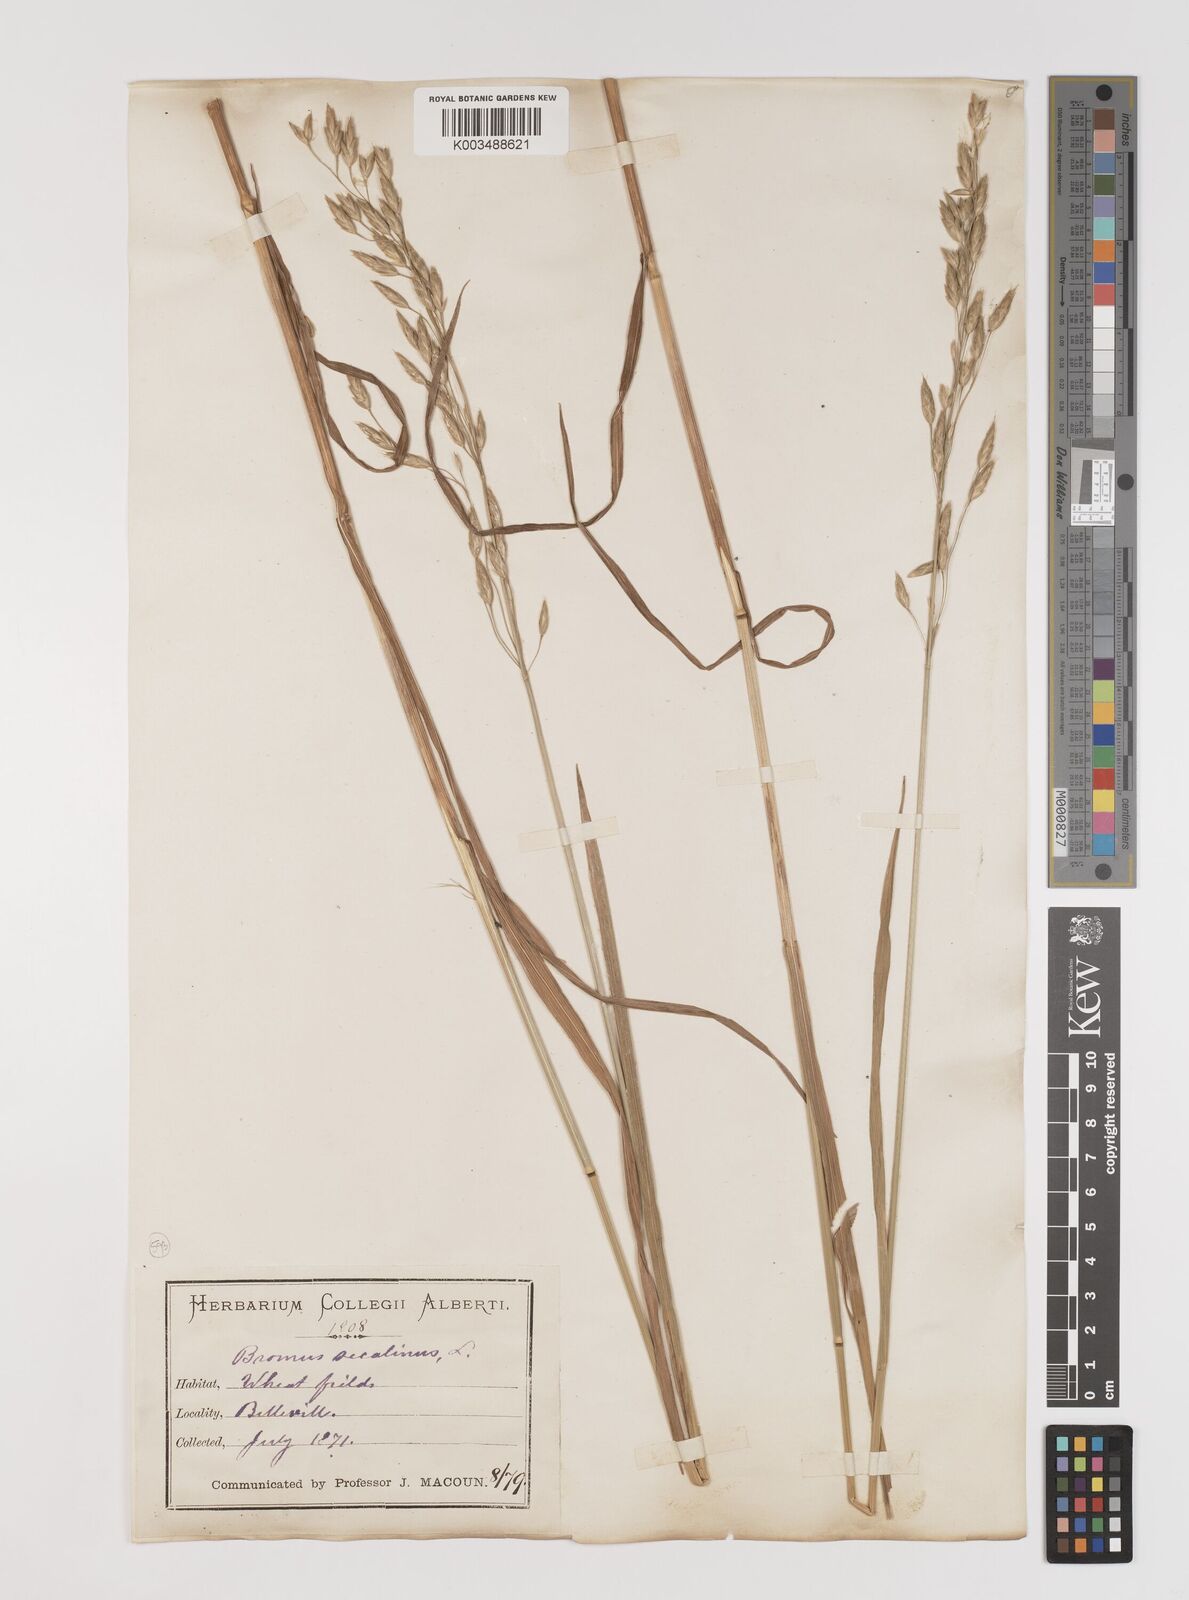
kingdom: Plantae
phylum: Tracheophyta
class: Liliopsida
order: Poales
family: Poaceae
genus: Bromus
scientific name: Bromus secalinus
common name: Rye brome
